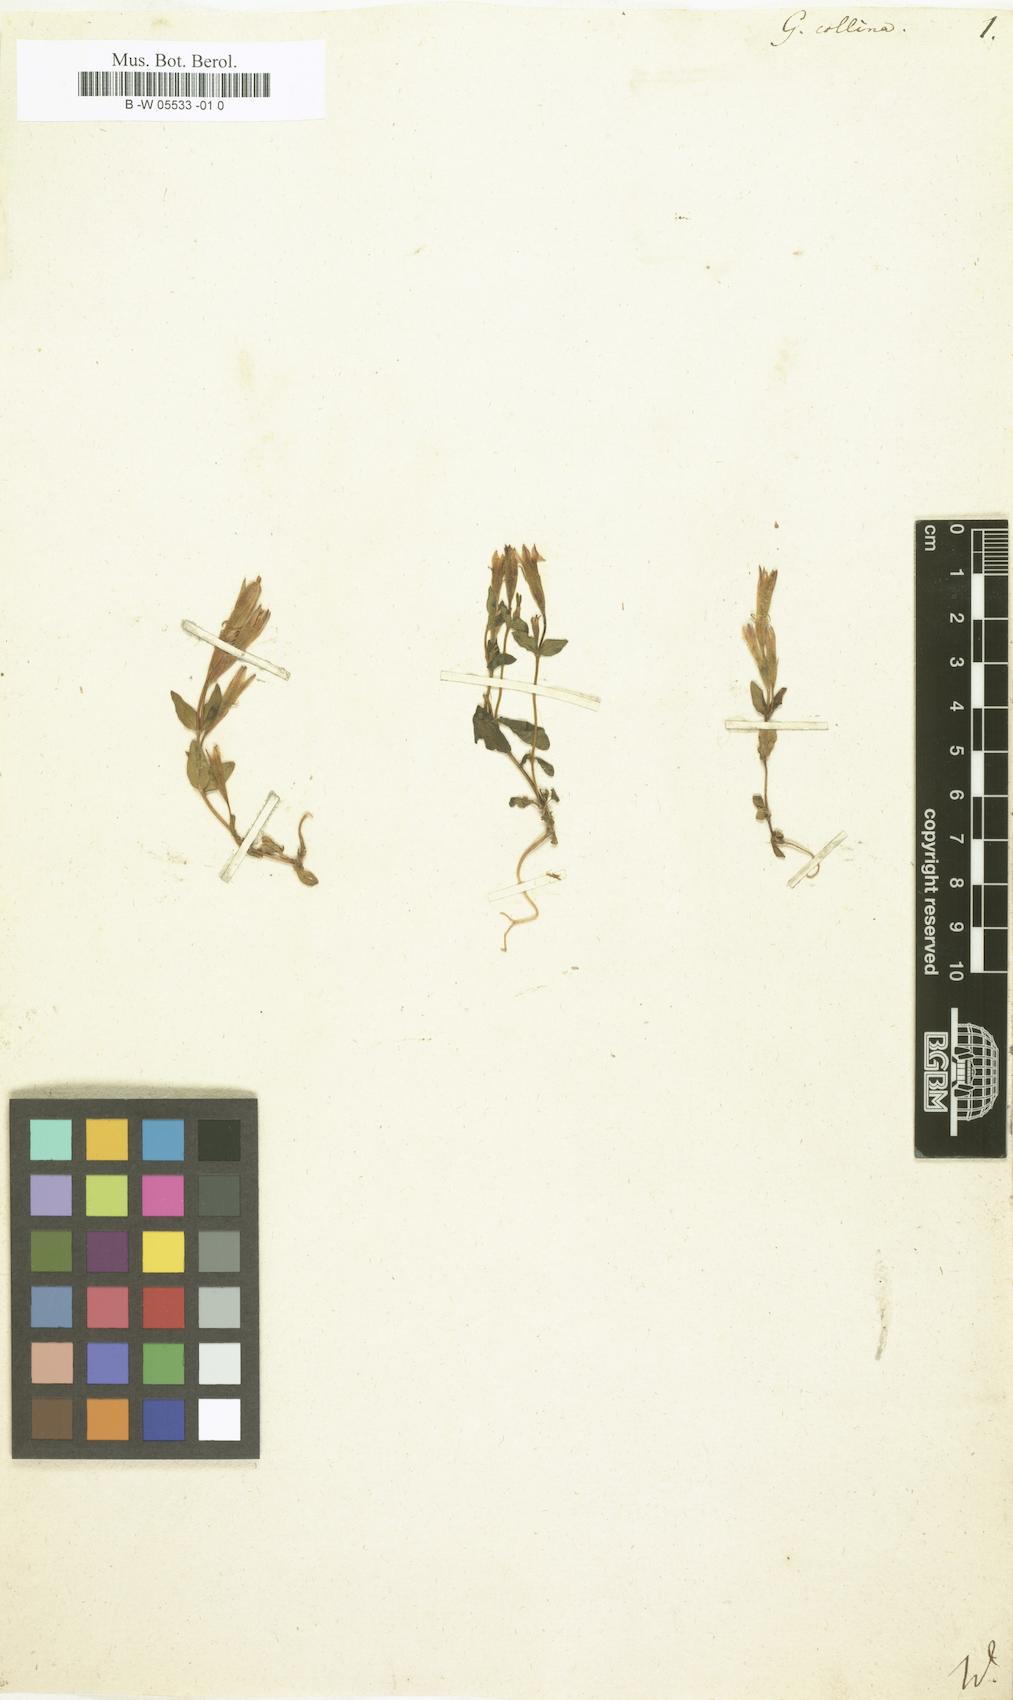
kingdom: Plantae
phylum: Tracheophyta
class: Magnoliopsida
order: Gentianales
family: Gentianaceae
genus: Gentianella
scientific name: Gentianella caucasea
